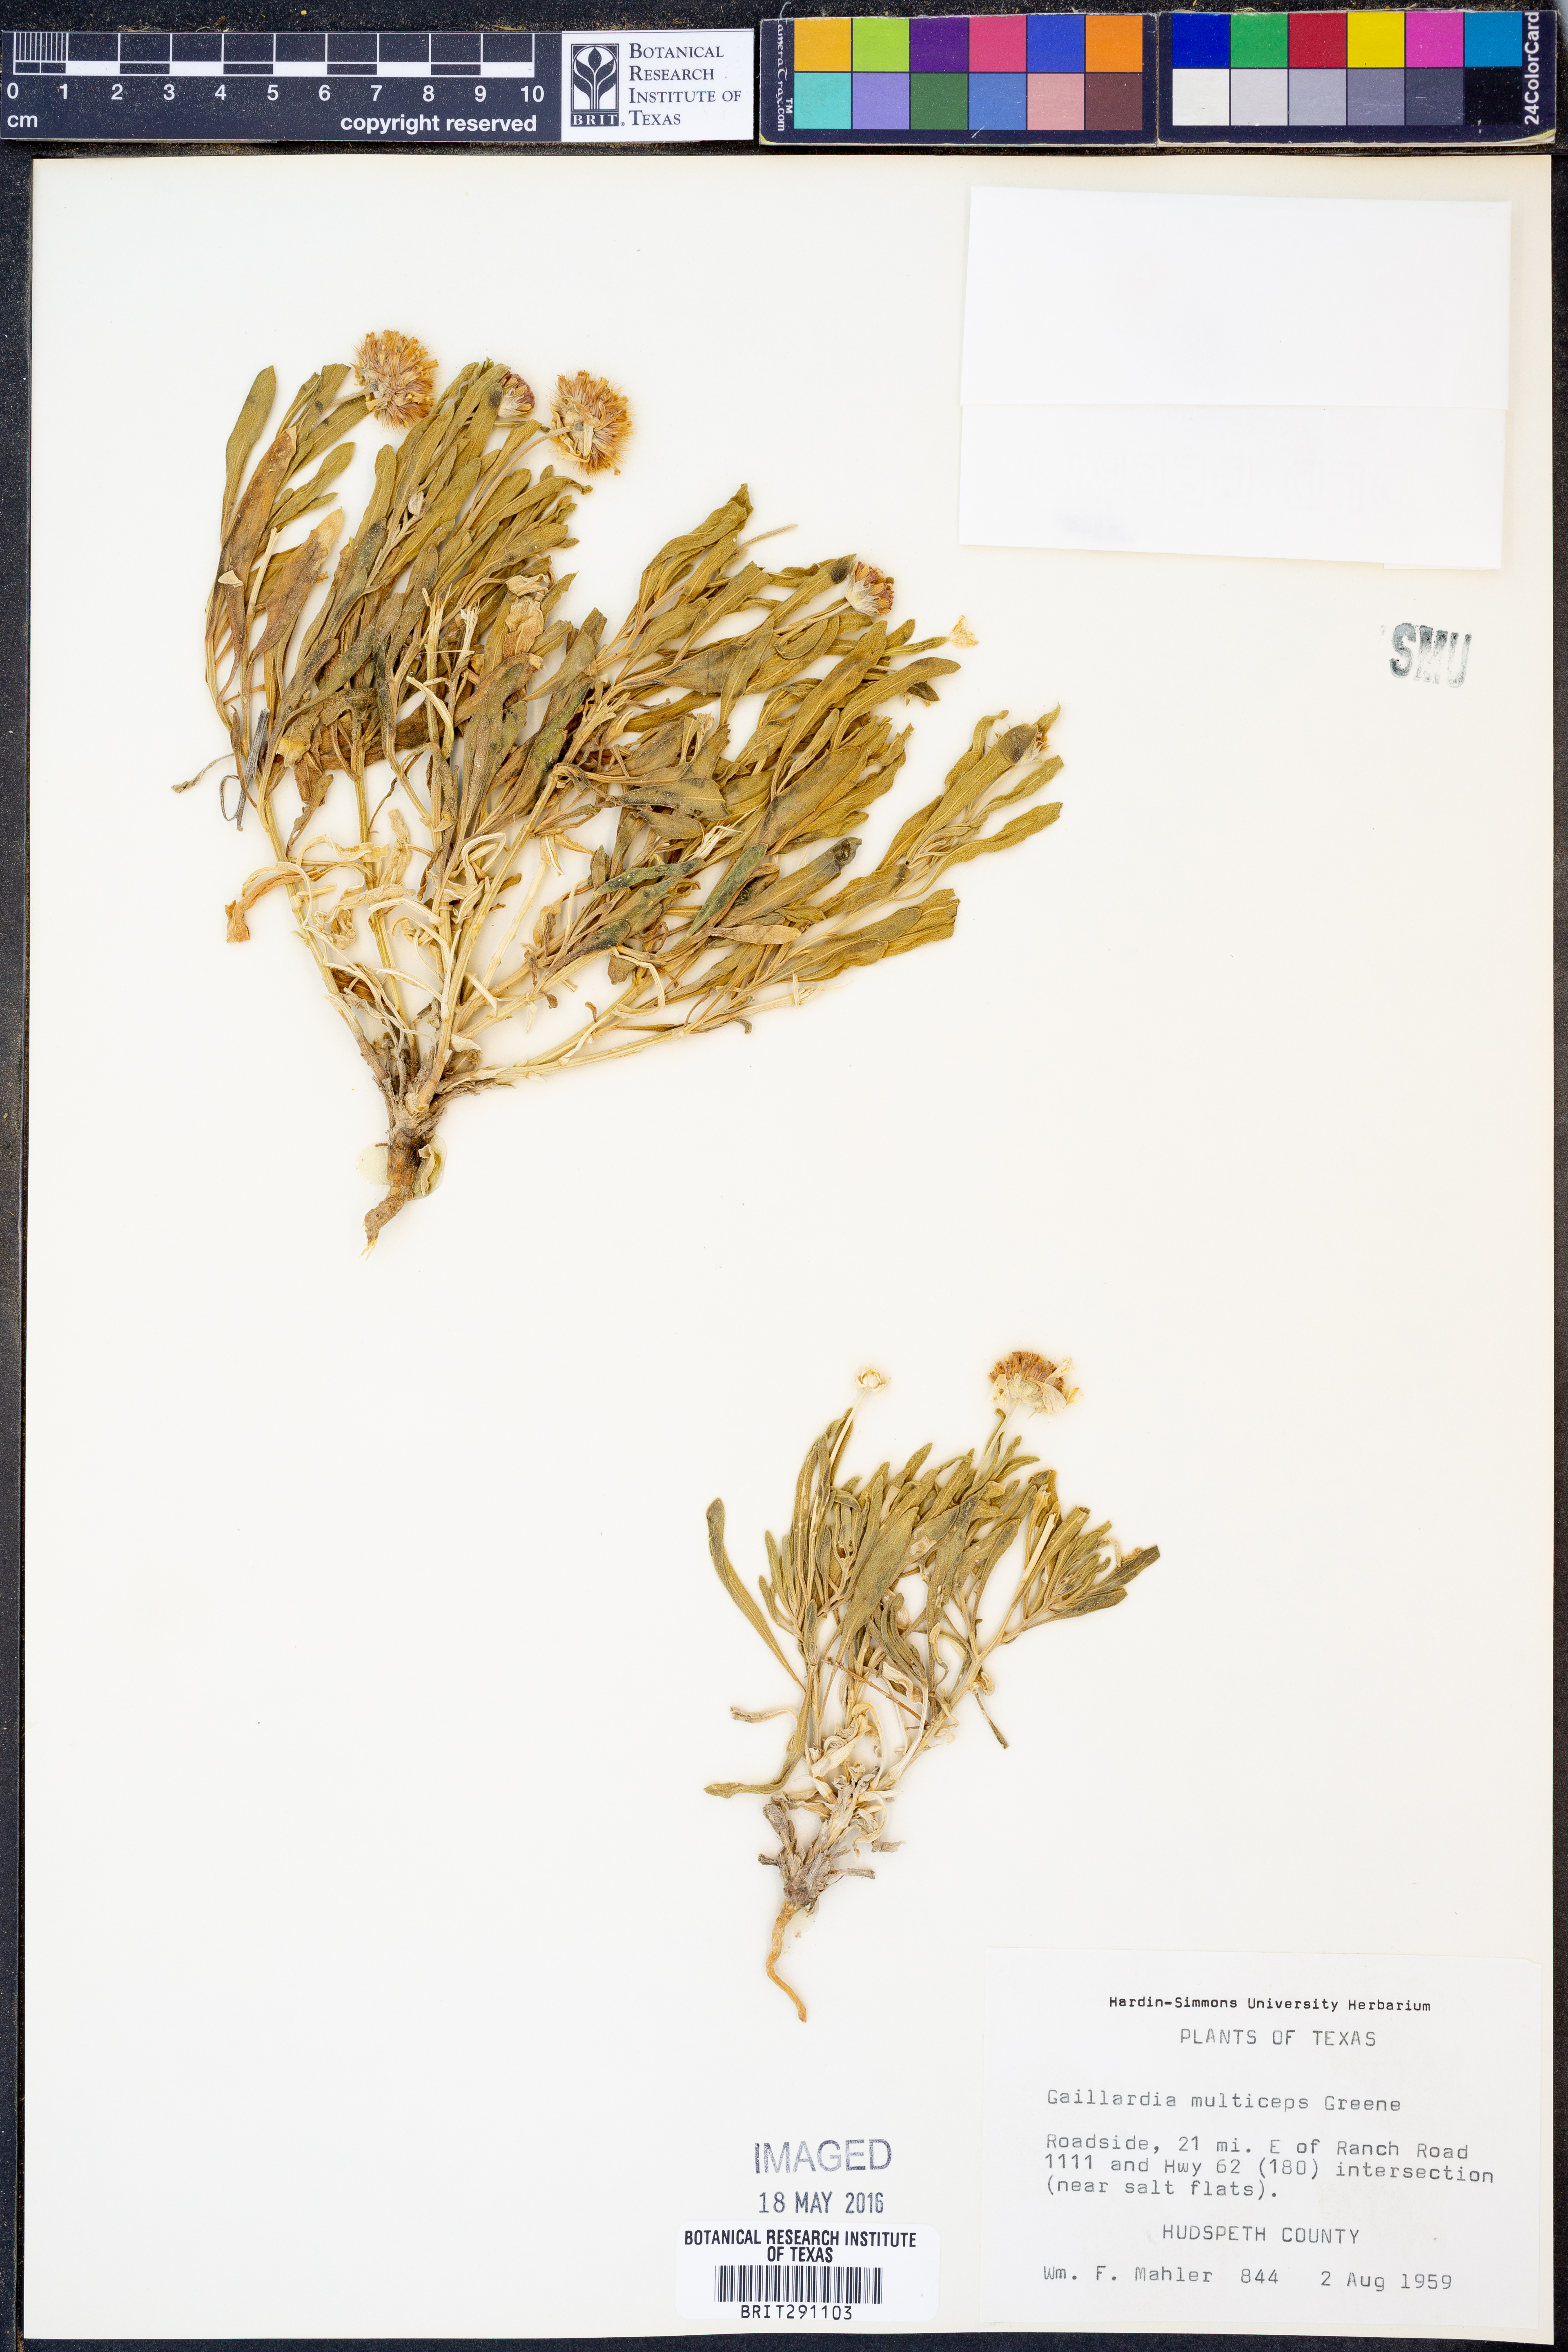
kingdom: Plantae
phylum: Tracheophyta
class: Magnoliopsida
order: Asterales
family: Asteraceae
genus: Gaillardia
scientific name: Gaillardia multiceps
